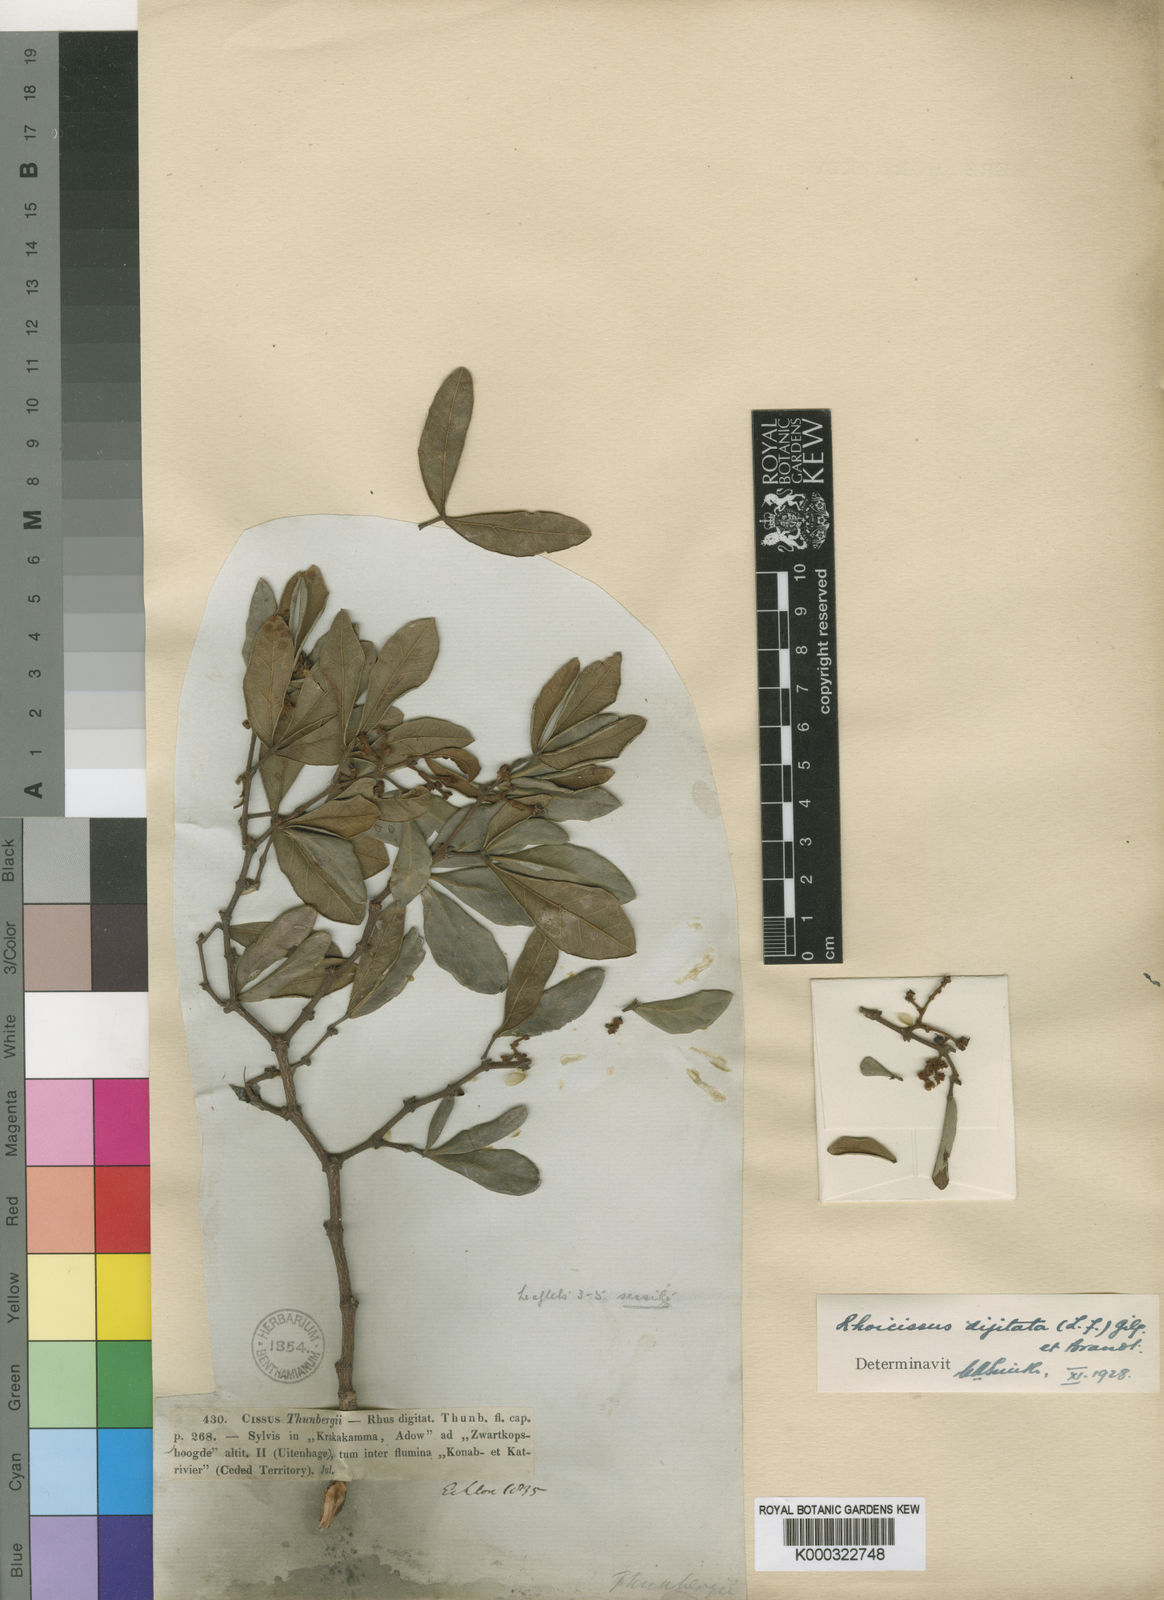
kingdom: Plantae
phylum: Tracheophyta
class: Magnoliopsida
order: Vitales
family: Vitaceae
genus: Rhoicissus
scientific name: Rhoicissus digitata
